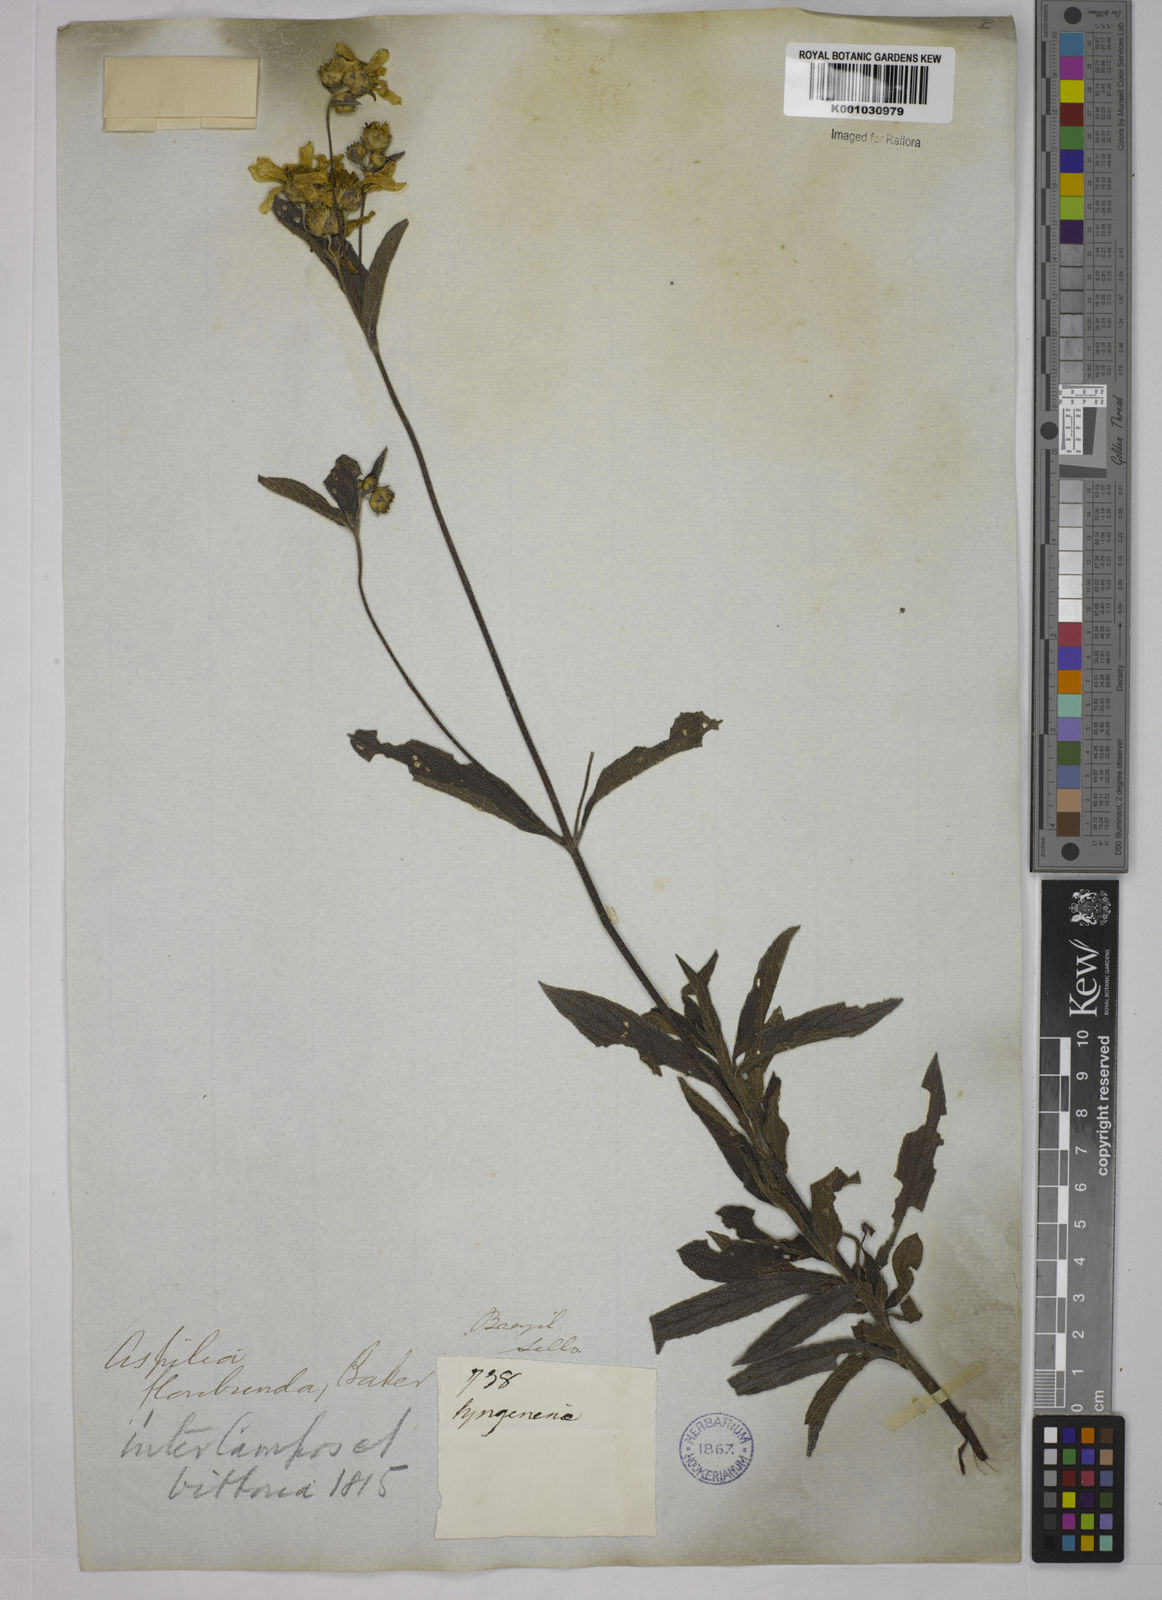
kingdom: Plantae
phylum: Tracheophyta
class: Magnoliopsida
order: Asterales
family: Asteraceae
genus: Wedelia
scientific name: Wedelia floribunda
